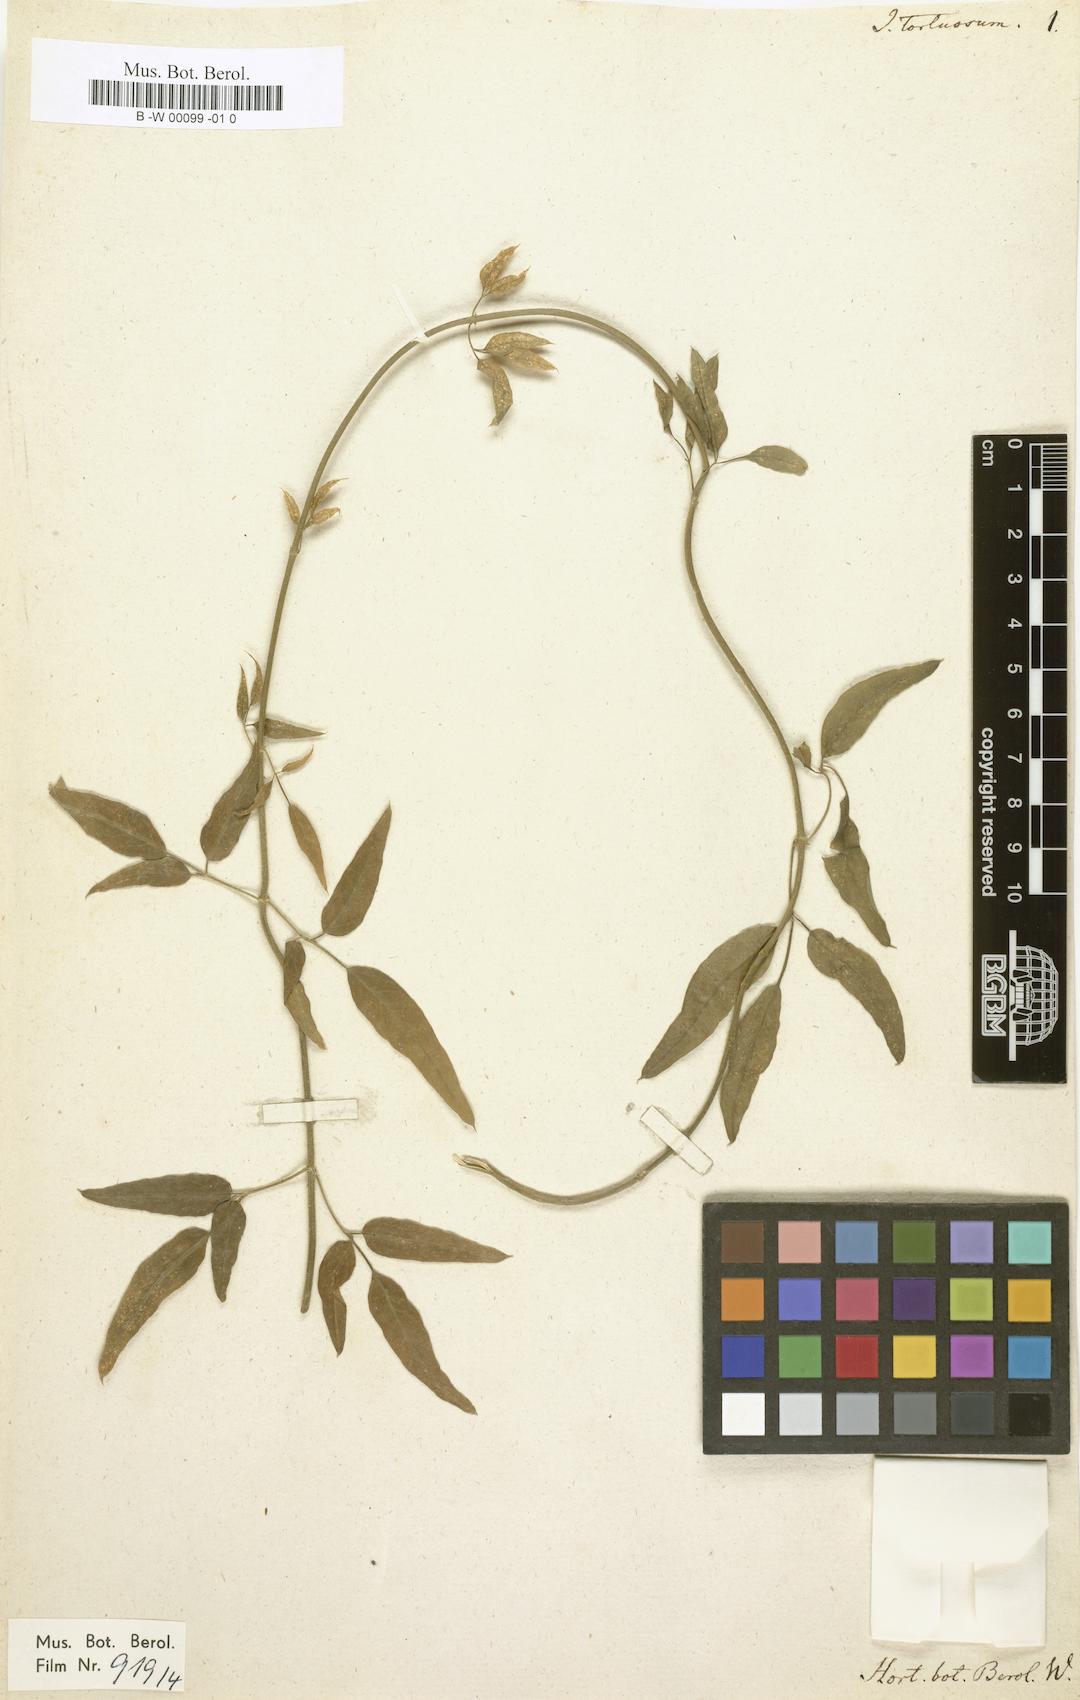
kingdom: Plantae
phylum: Tracheophyta
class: Magnoliopsida
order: Lamiales
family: Oleaceae
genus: Jasminum
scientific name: Jasminum tortuosum
